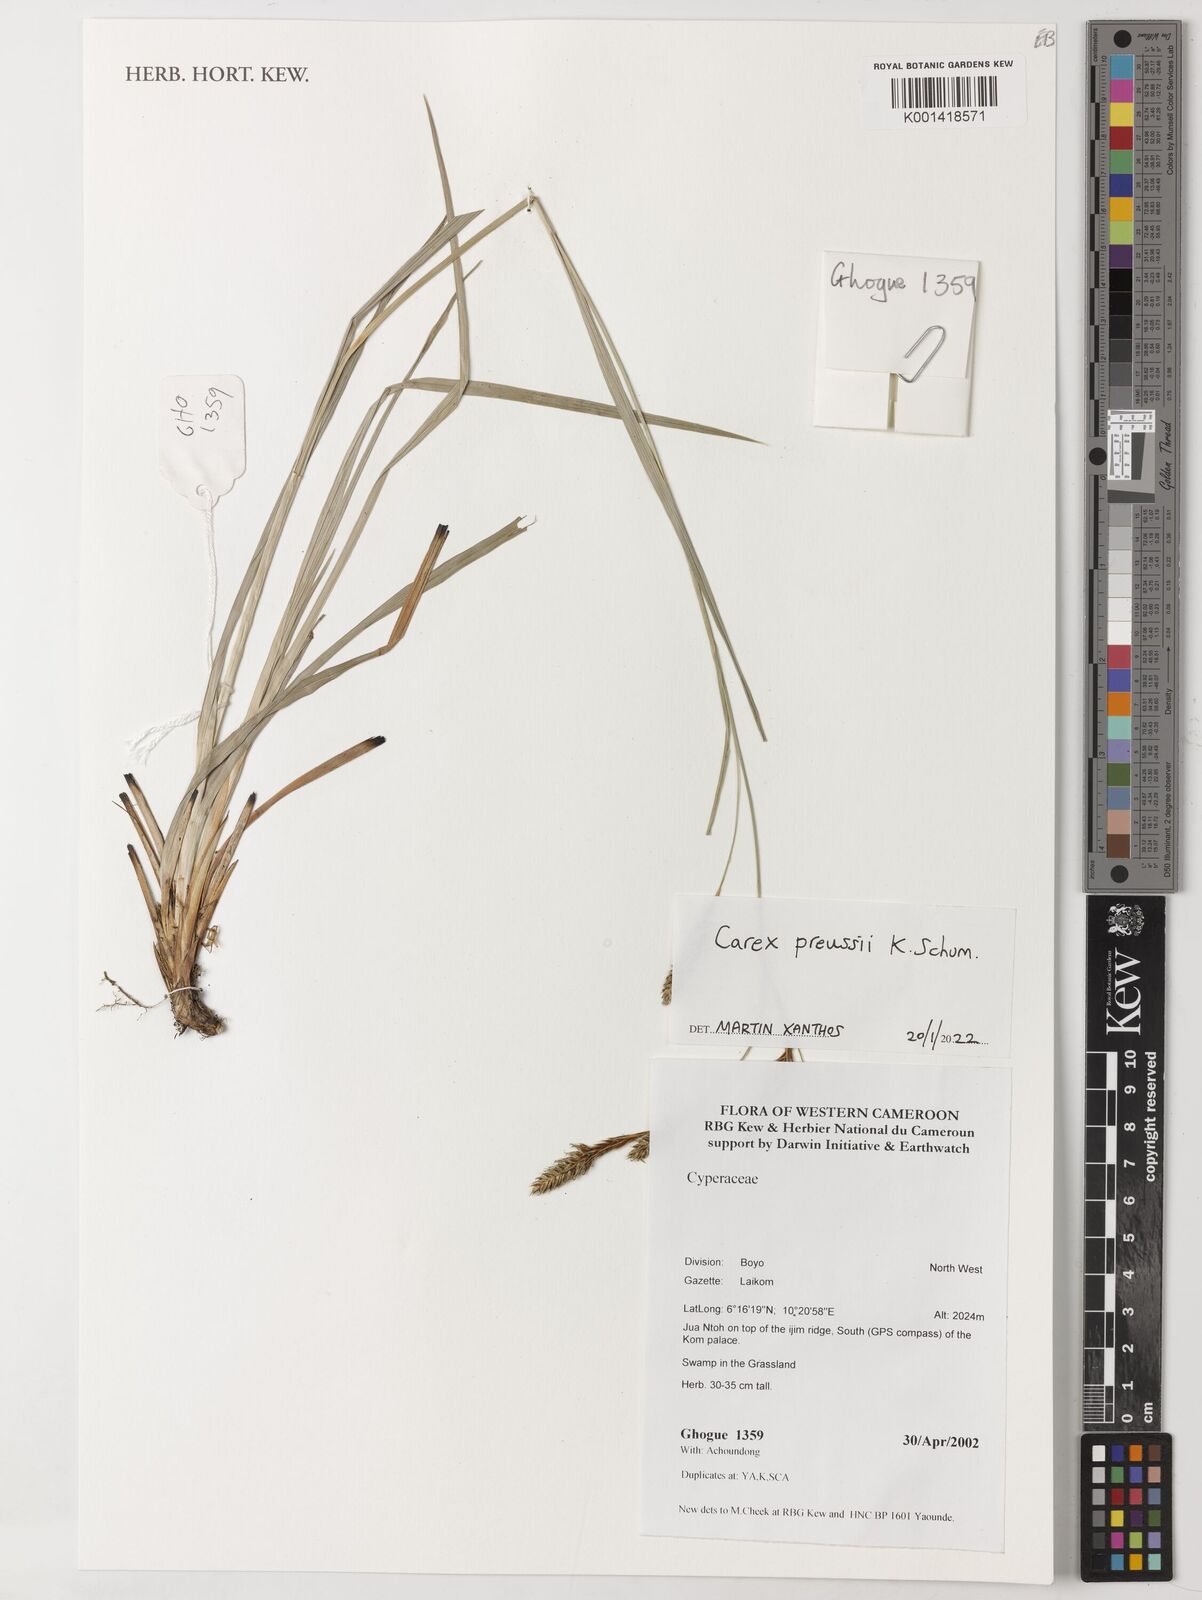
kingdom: Plantae
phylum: Tracheophyta
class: Liliopsida
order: Poales
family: Cyperaceae
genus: Carex
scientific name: Carex petitiana
